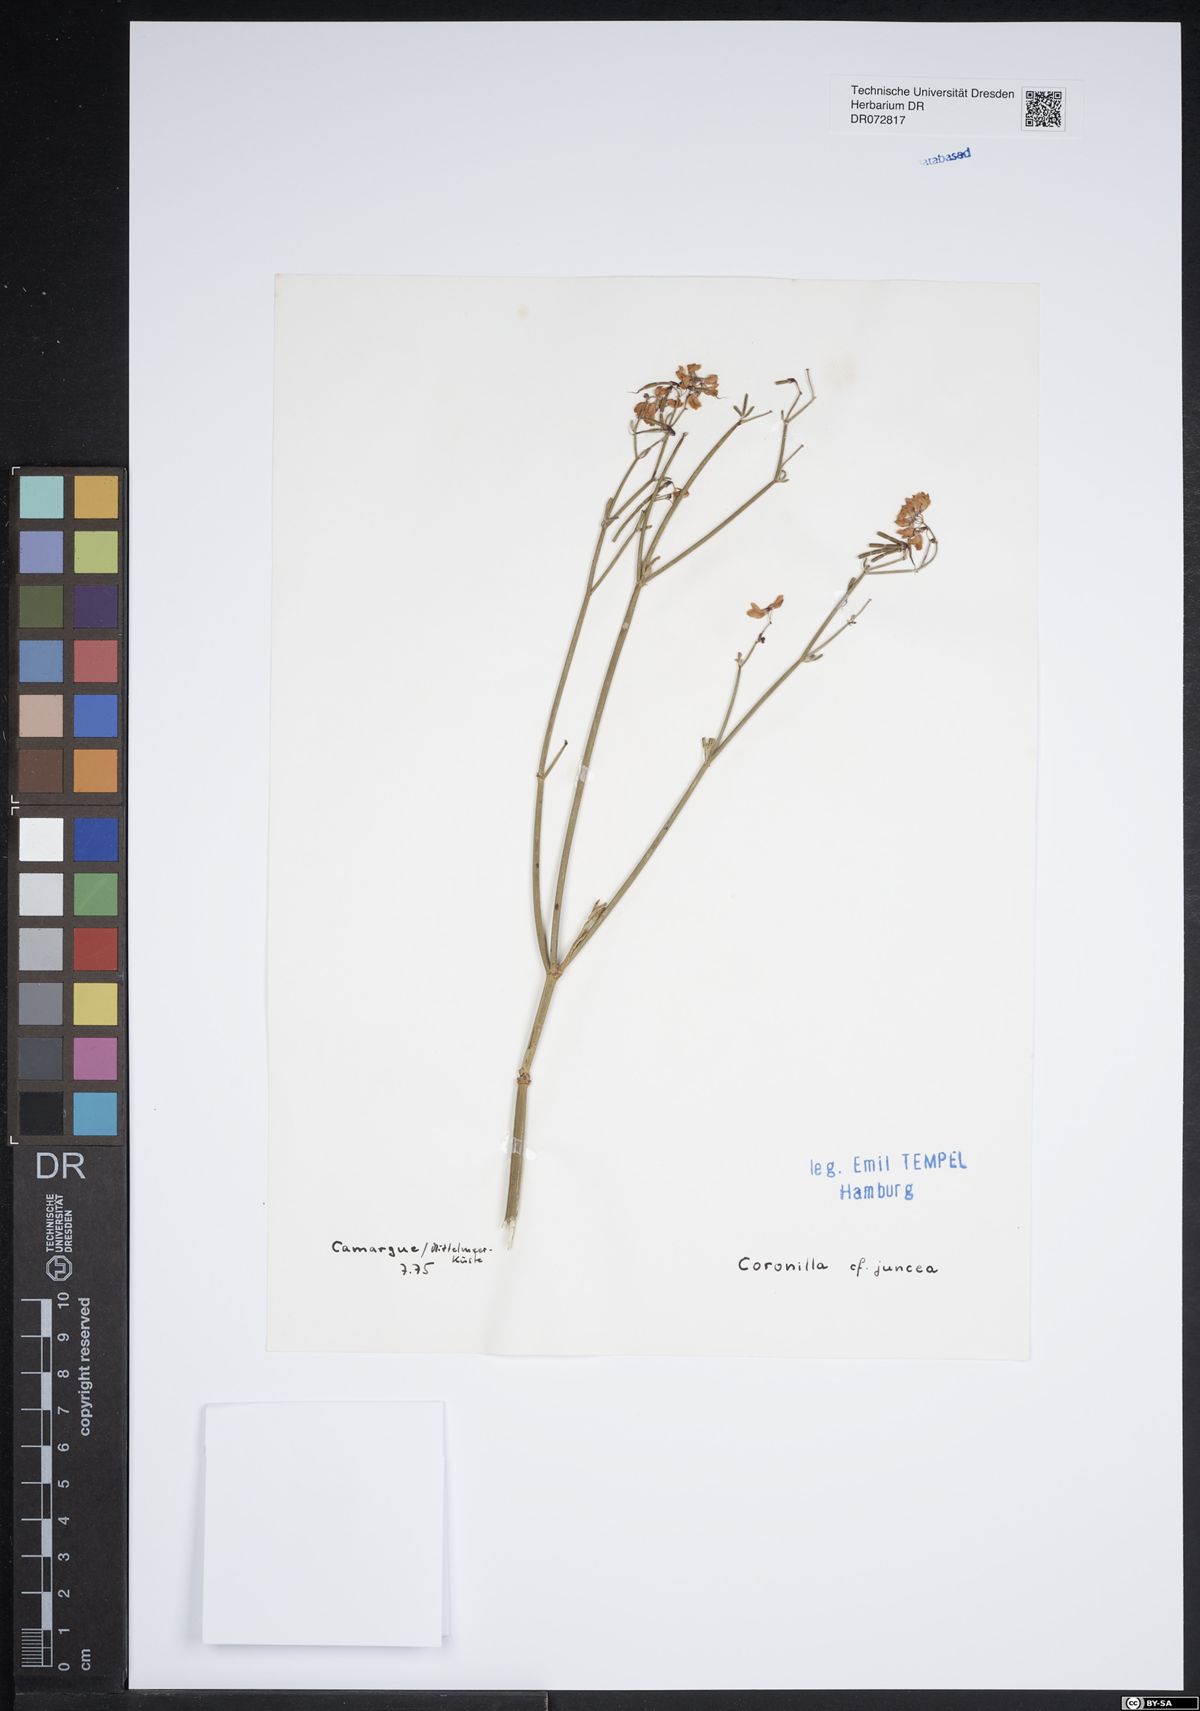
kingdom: Plantae
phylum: Tracheophyta
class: Magnoliopsida
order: Fabales
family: Fabaceae
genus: Coronilla
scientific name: Coronilla juncea
